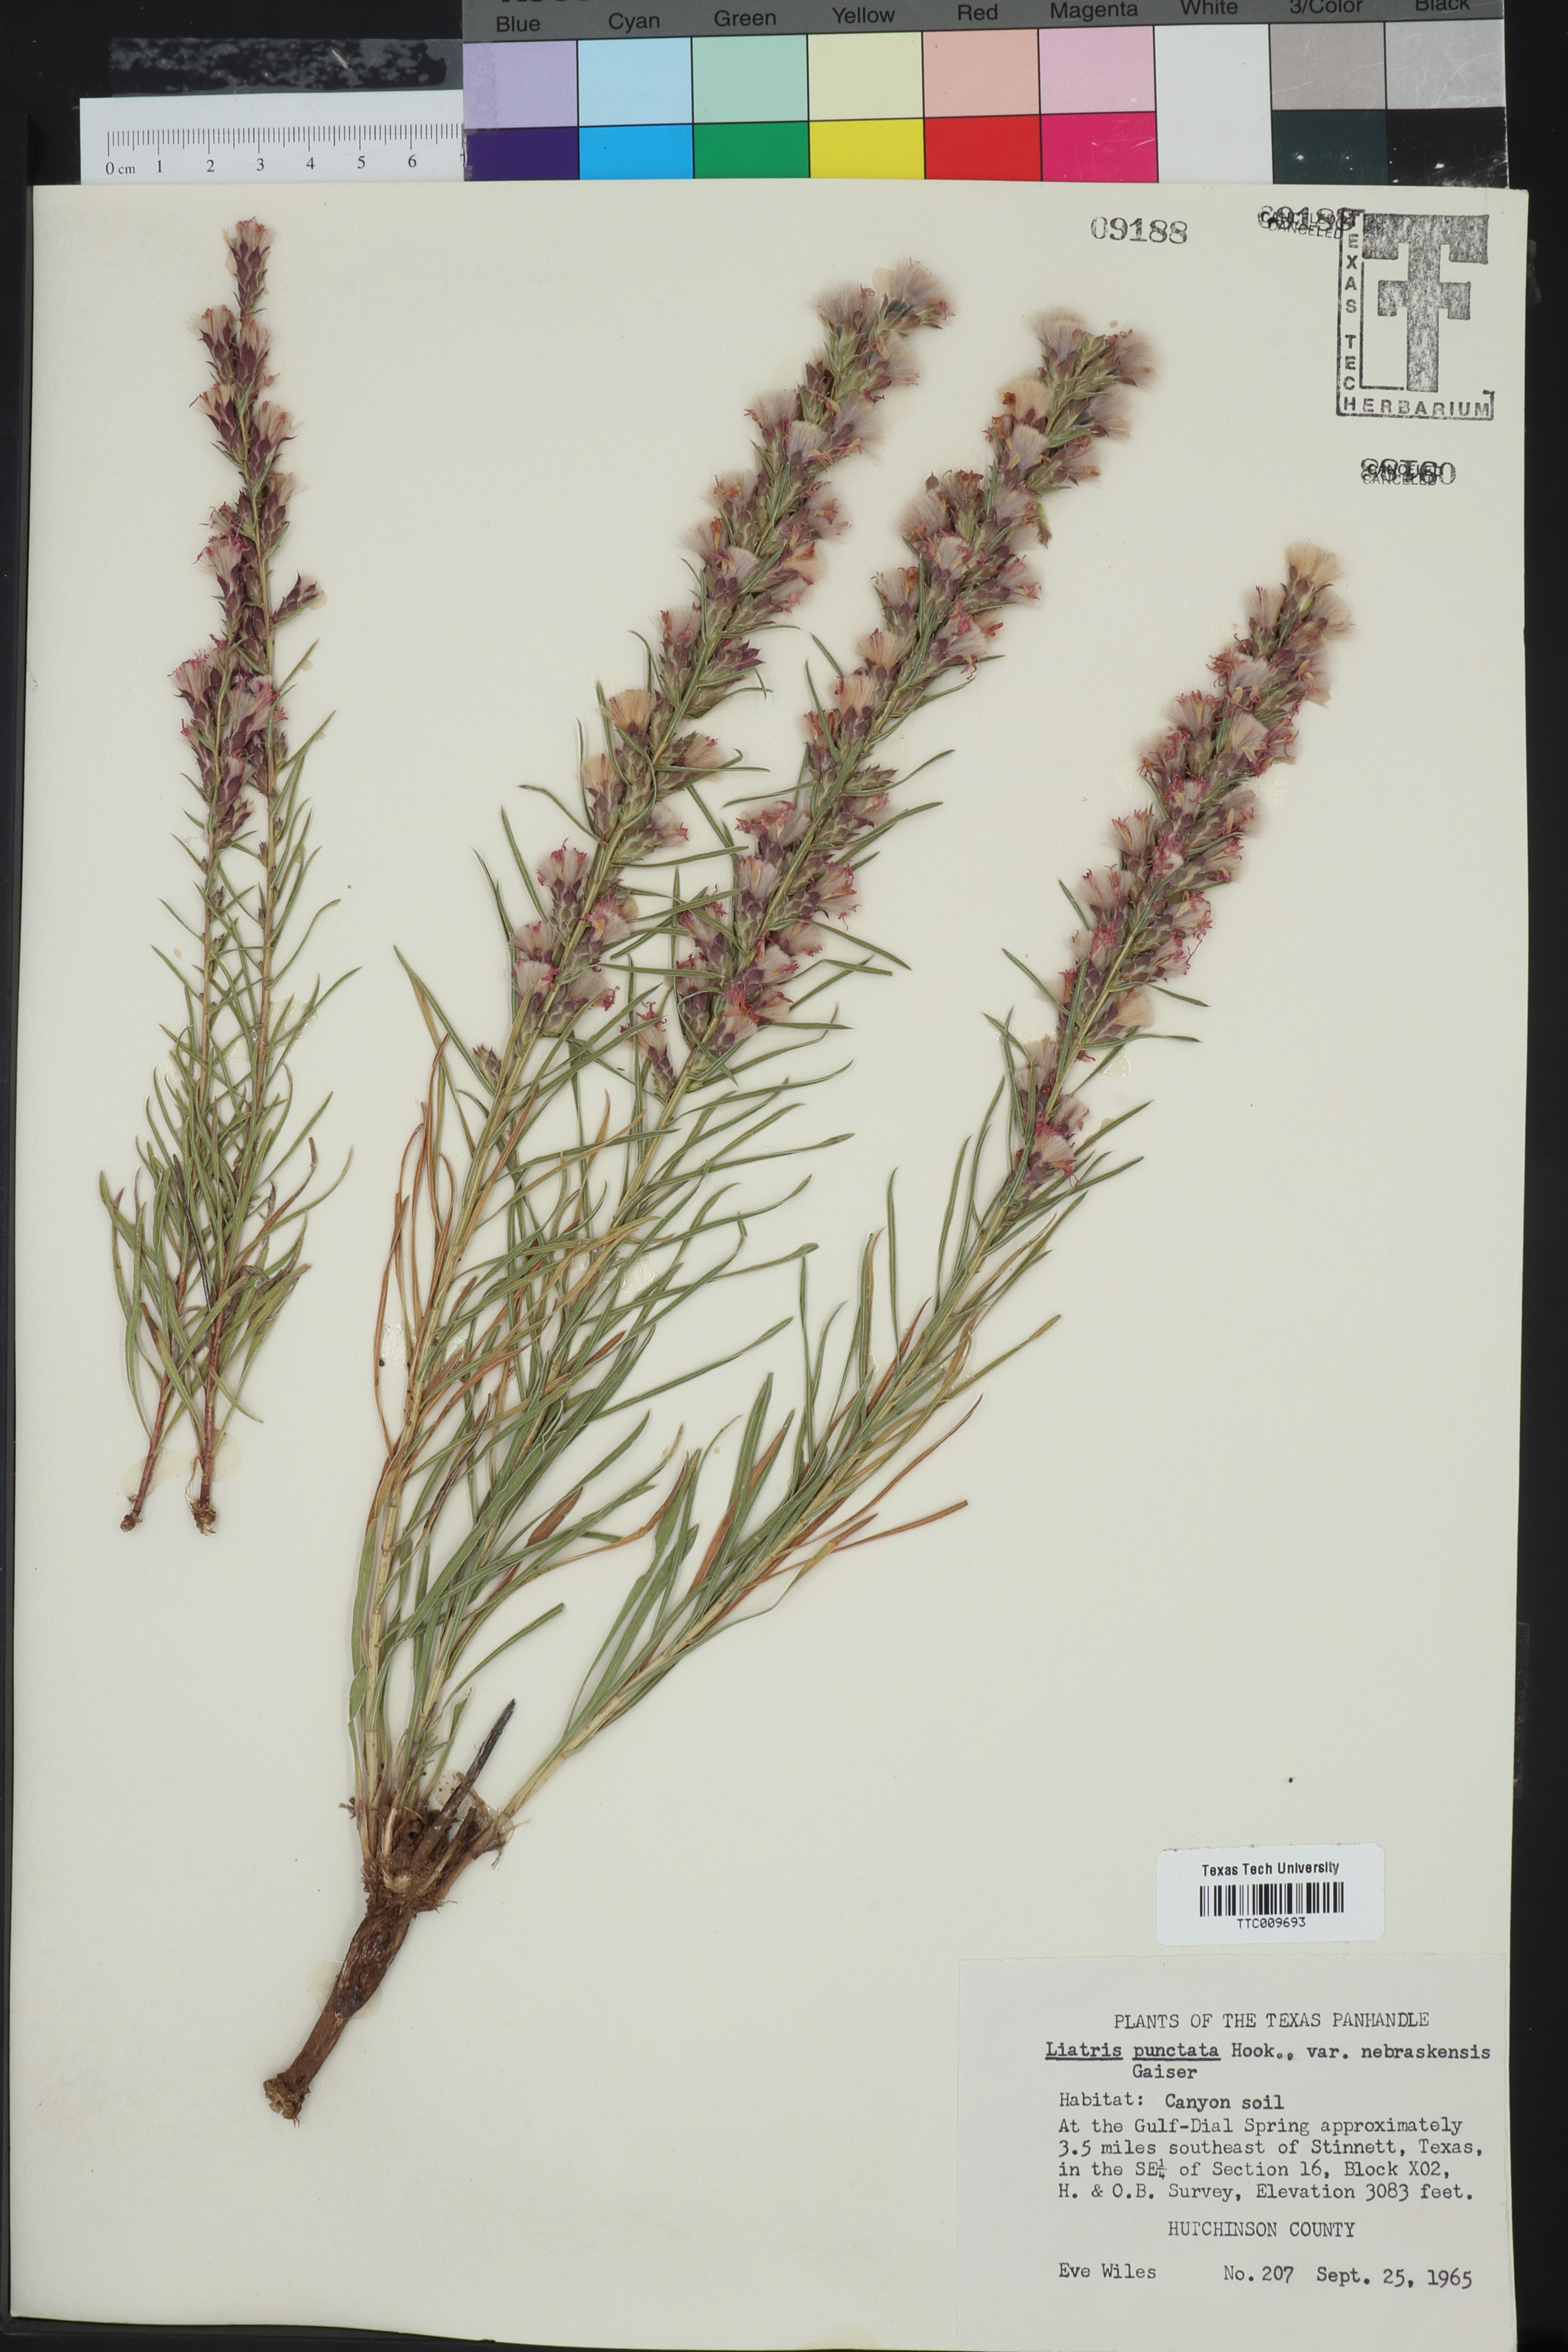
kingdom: Plantae
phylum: Tracheophyta
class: Magnoliopsida
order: Asterales
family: Asteraceae
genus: Liatris
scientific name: Liatris punctata
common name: Dotted gayfeather
